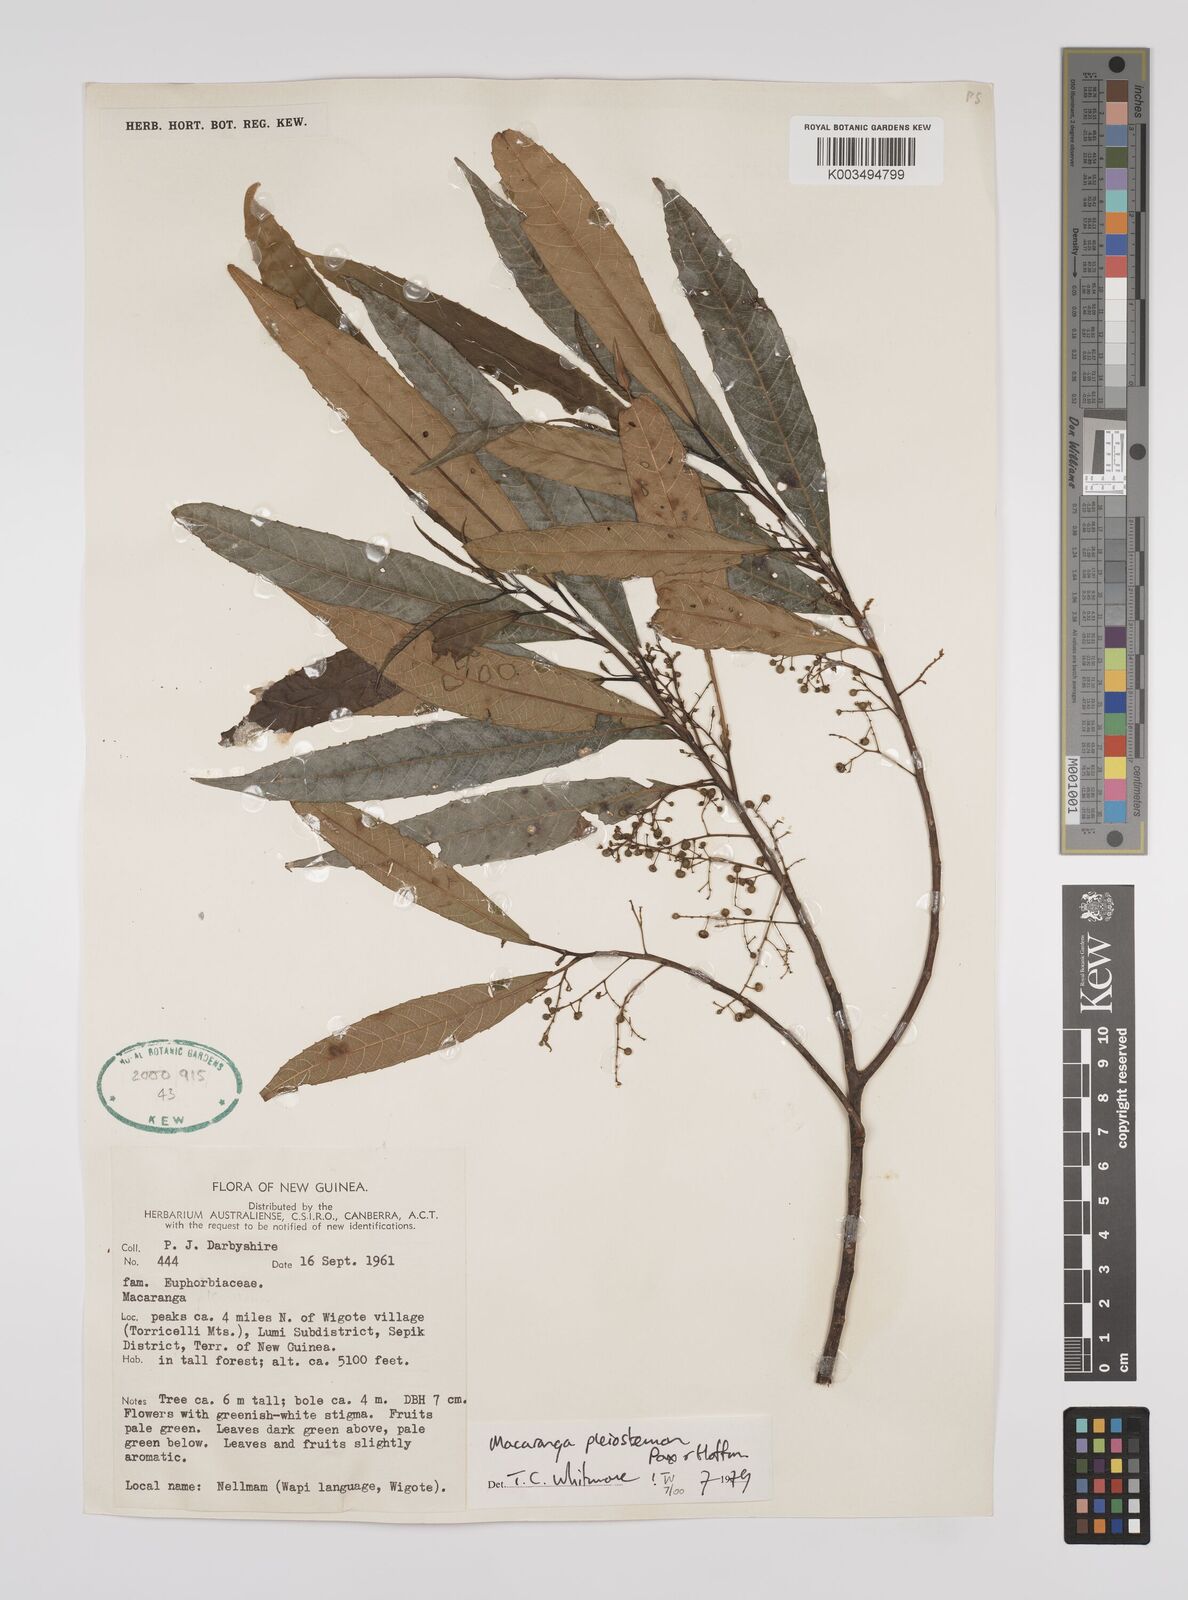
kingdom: Plantae
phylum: Tracheophyta
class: Magnoliopsida
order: Malpighiales
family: Euphorbiaceae
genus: Macaranga
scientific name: Macaranga pleiostemon
